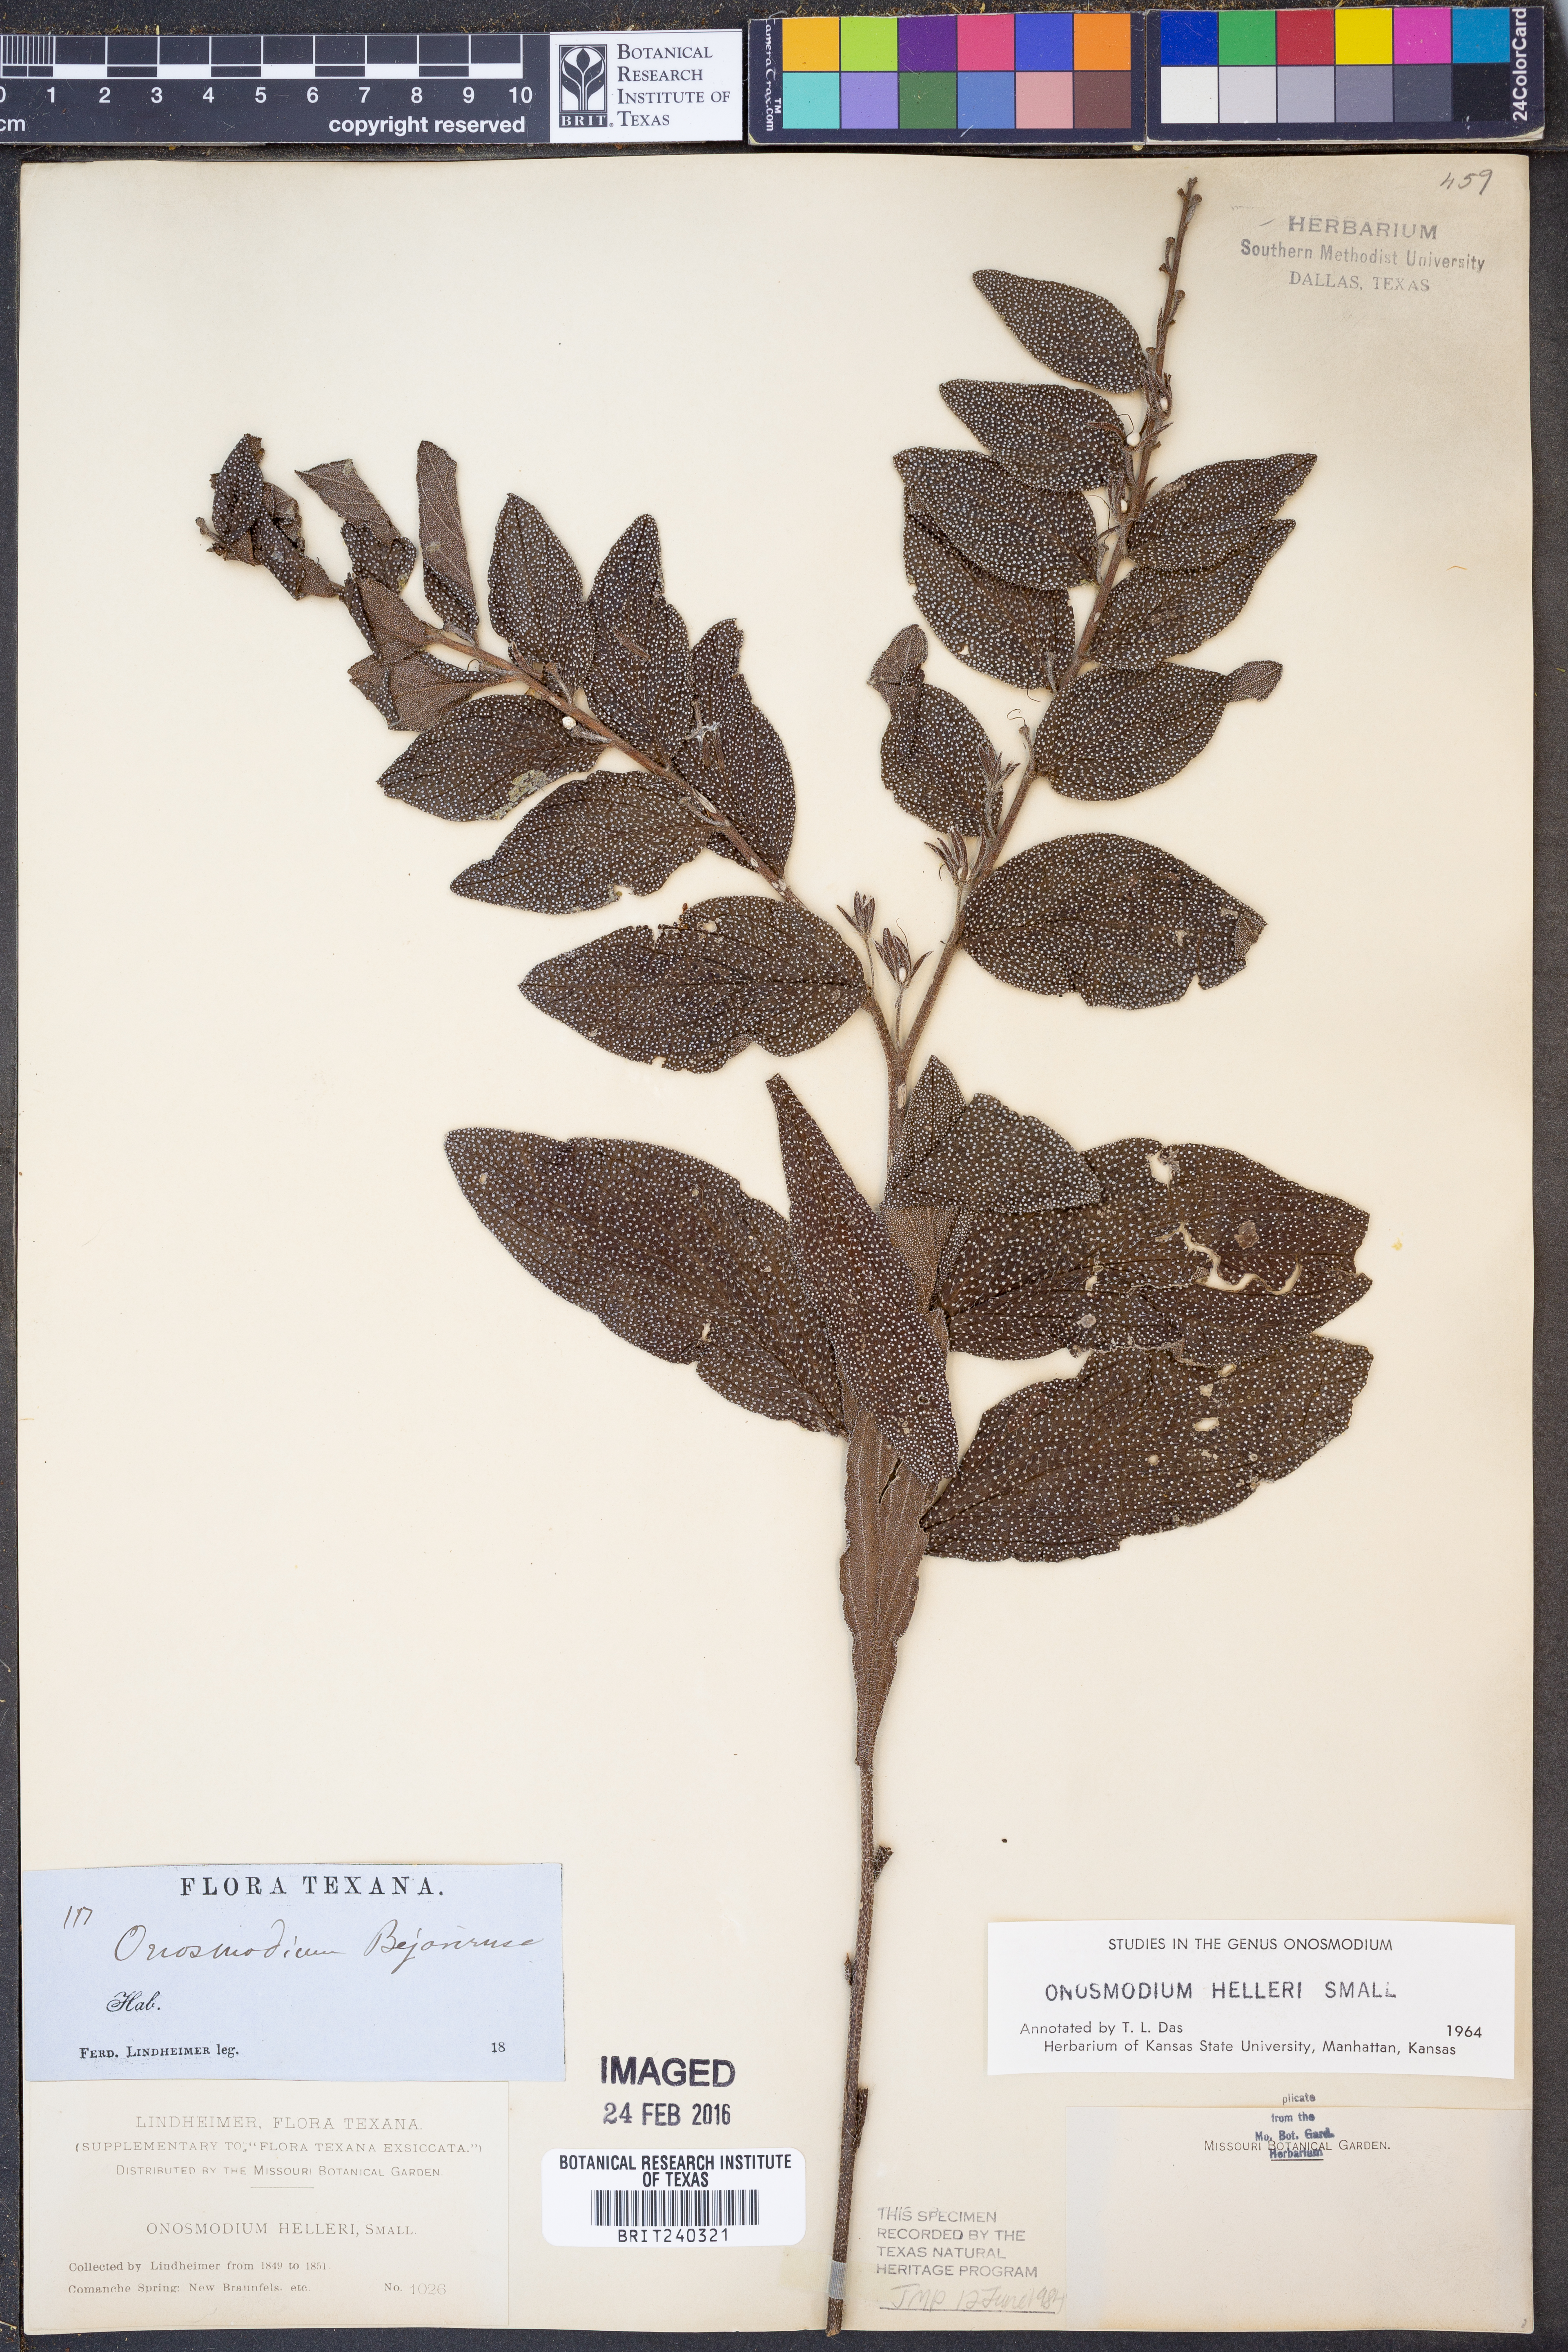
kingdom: Plantae
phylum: Tracheophyta
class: Magnoliopsida
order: Boraginales
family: Boraginaceae
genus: Lithospermum
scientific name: Lithospermum helleri
